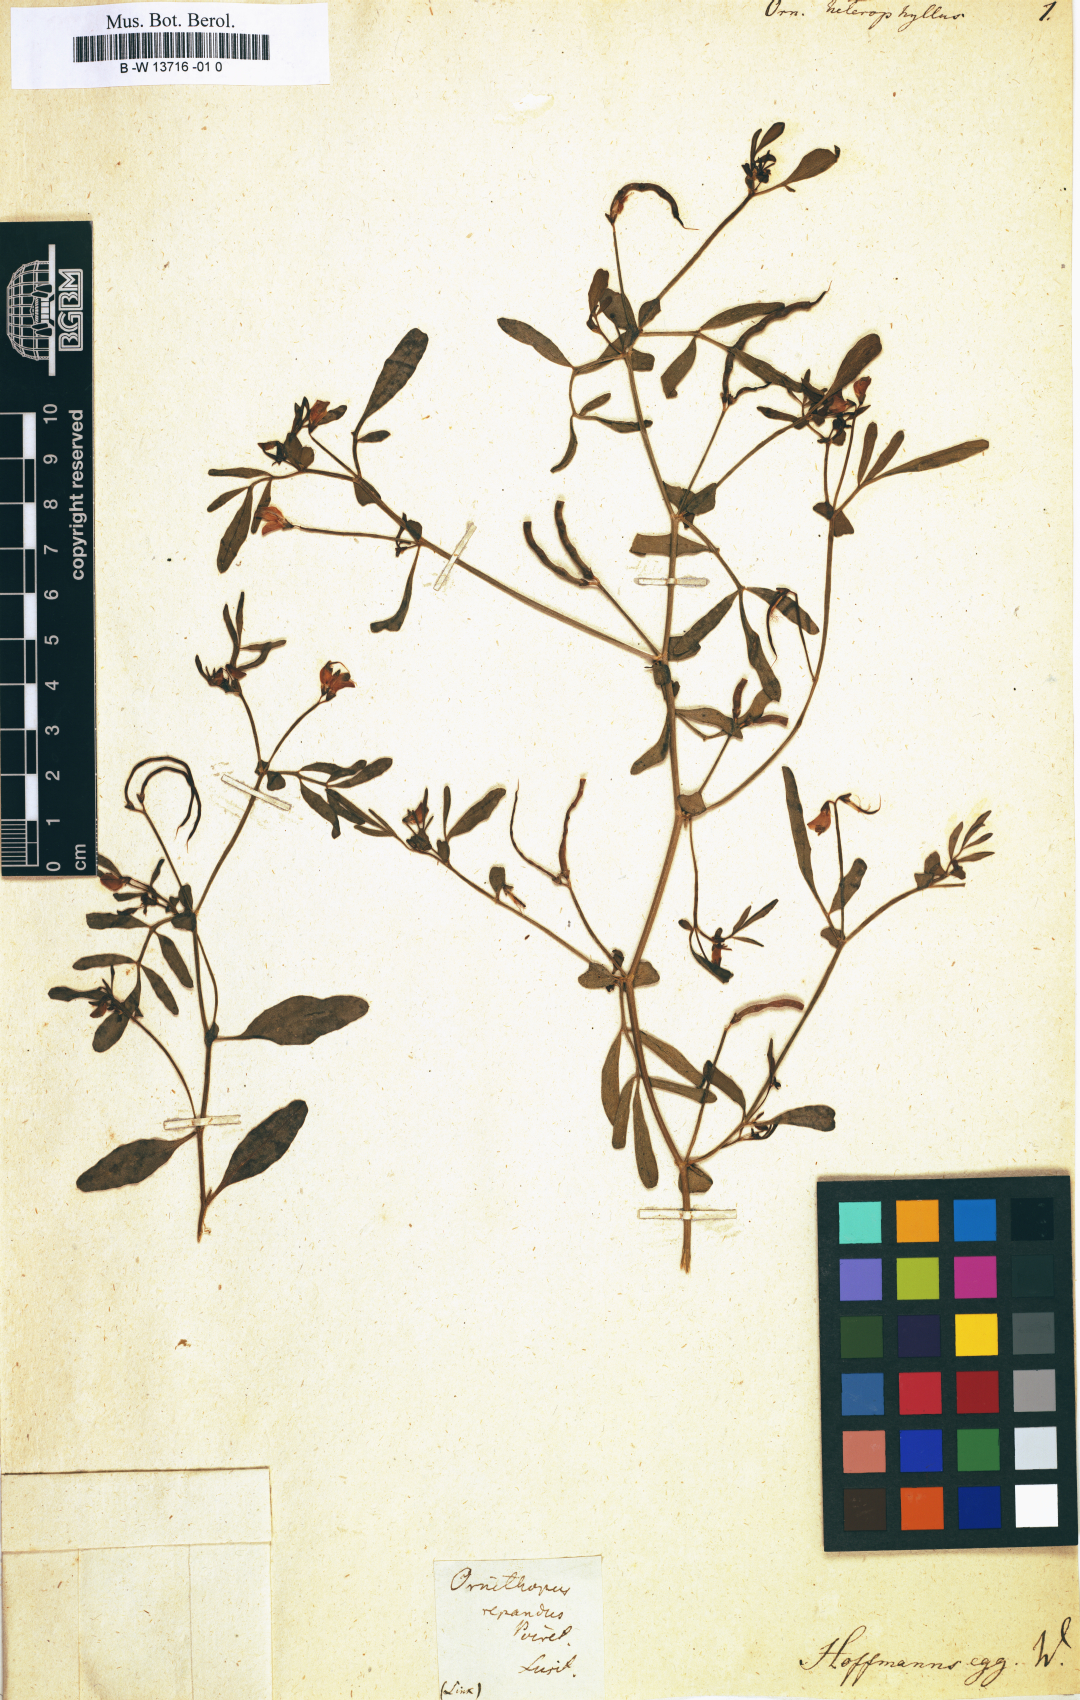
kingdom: Plantae
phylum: Tracheophyta
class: Magnoliopsida
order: Fabales
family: Fabaceae
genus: Coronilla
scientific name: Coronilla dura
